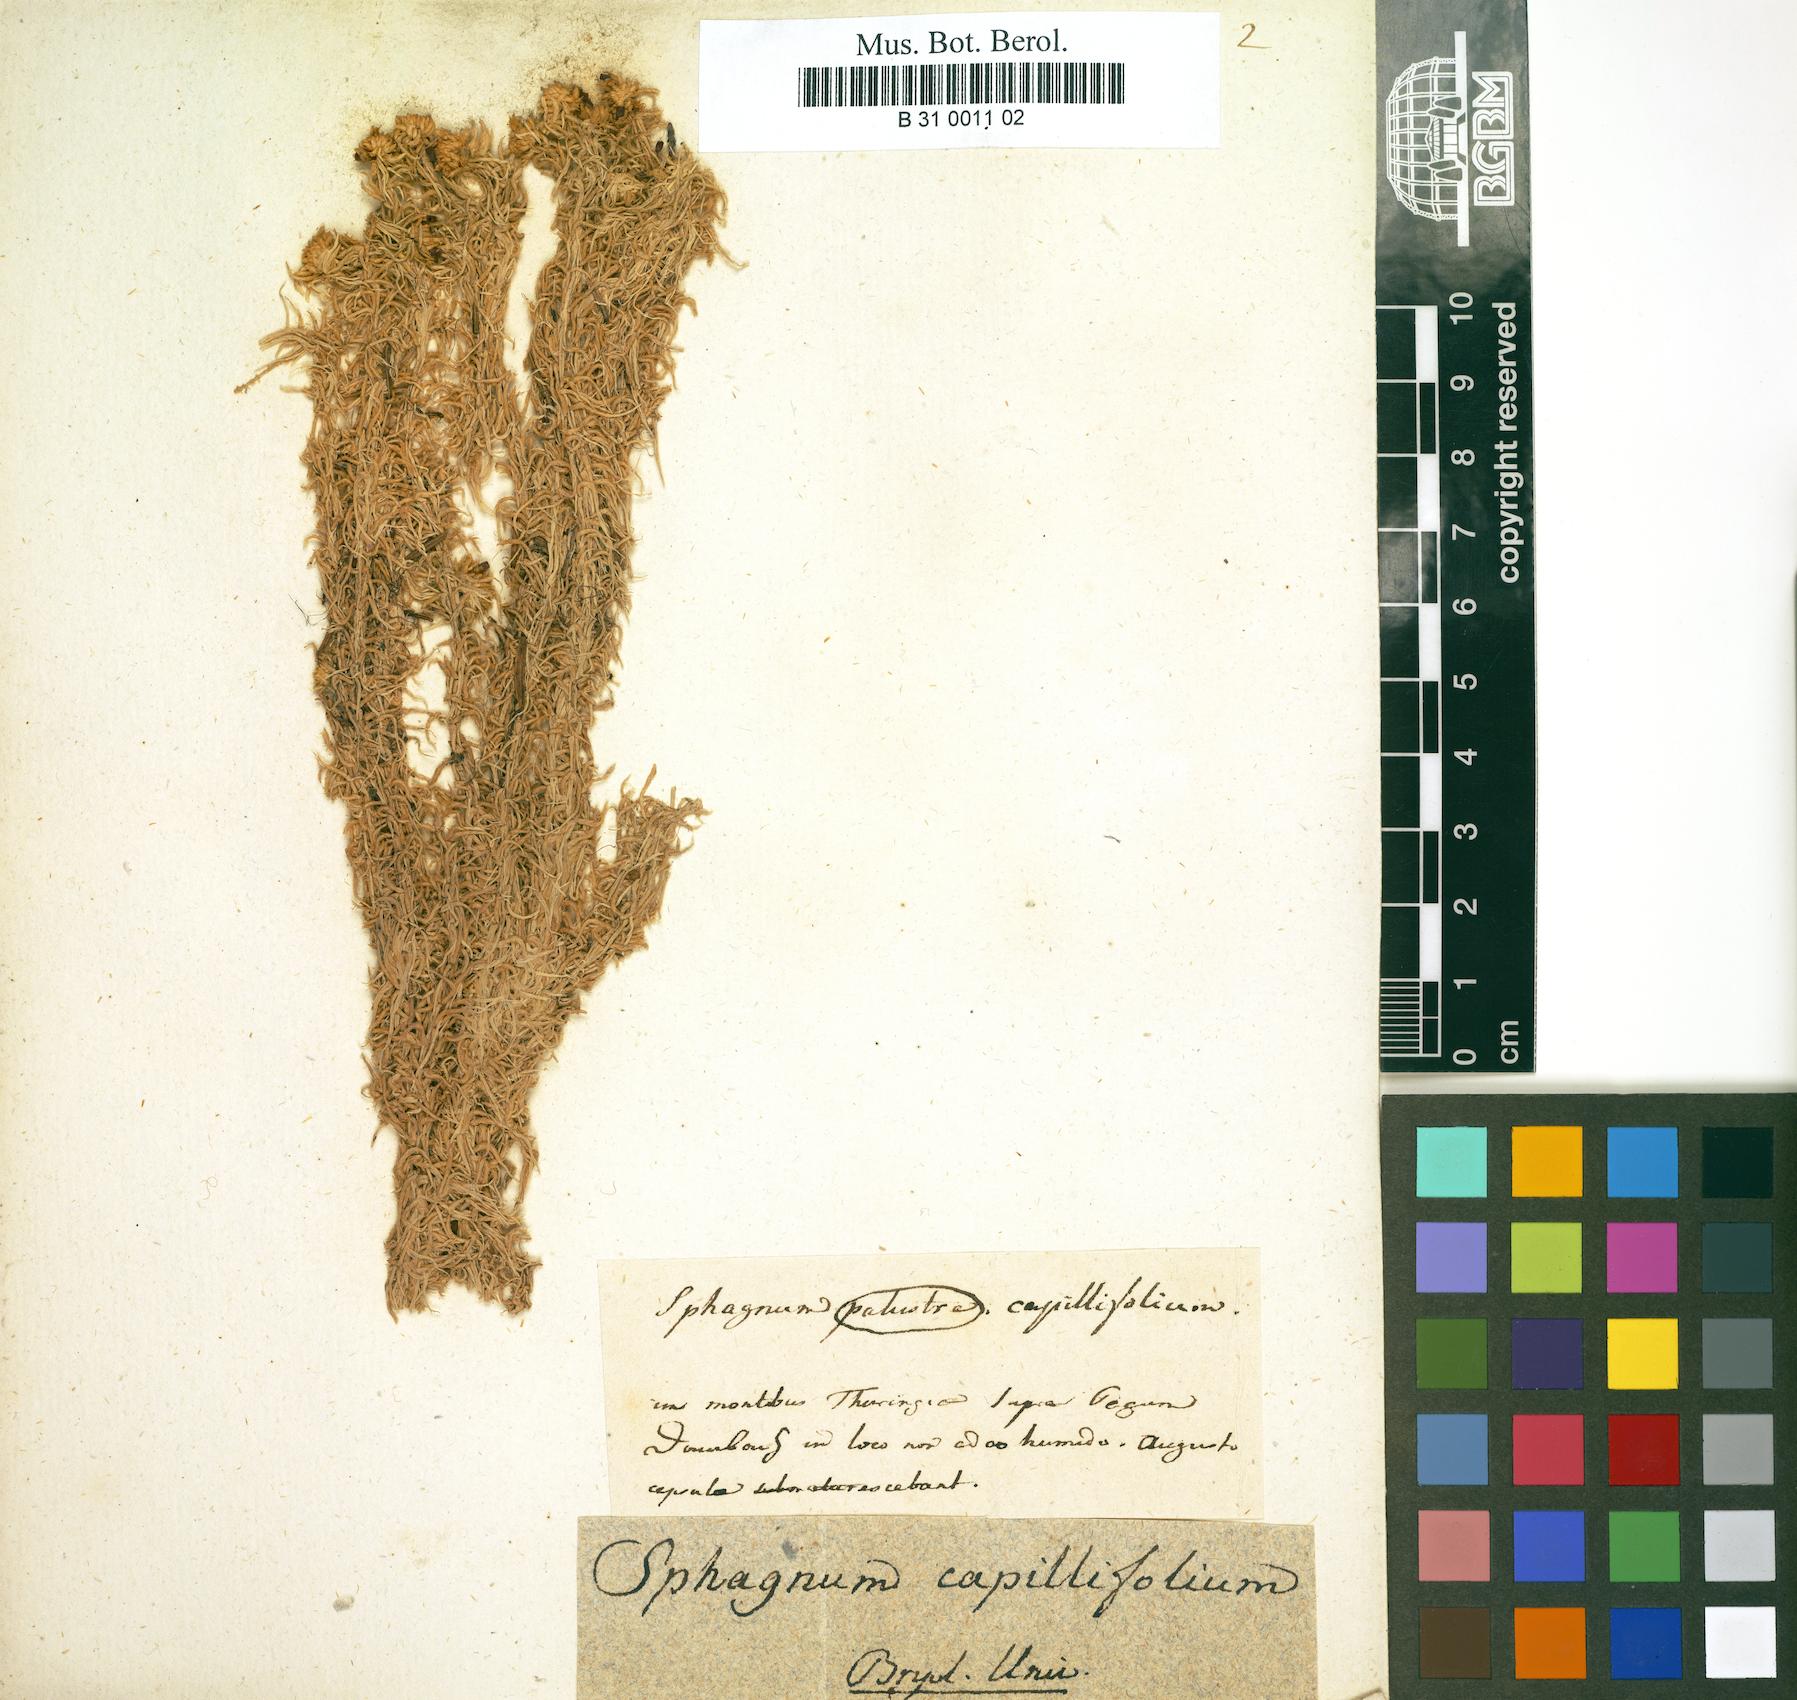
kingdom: Plantae
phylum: Bryophyta
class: Sphagnopsida
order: Sphagnales
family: Sphagnaceae
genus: Sphagnum
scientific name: Sphagnum capillifolium
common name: Small red peat moss
